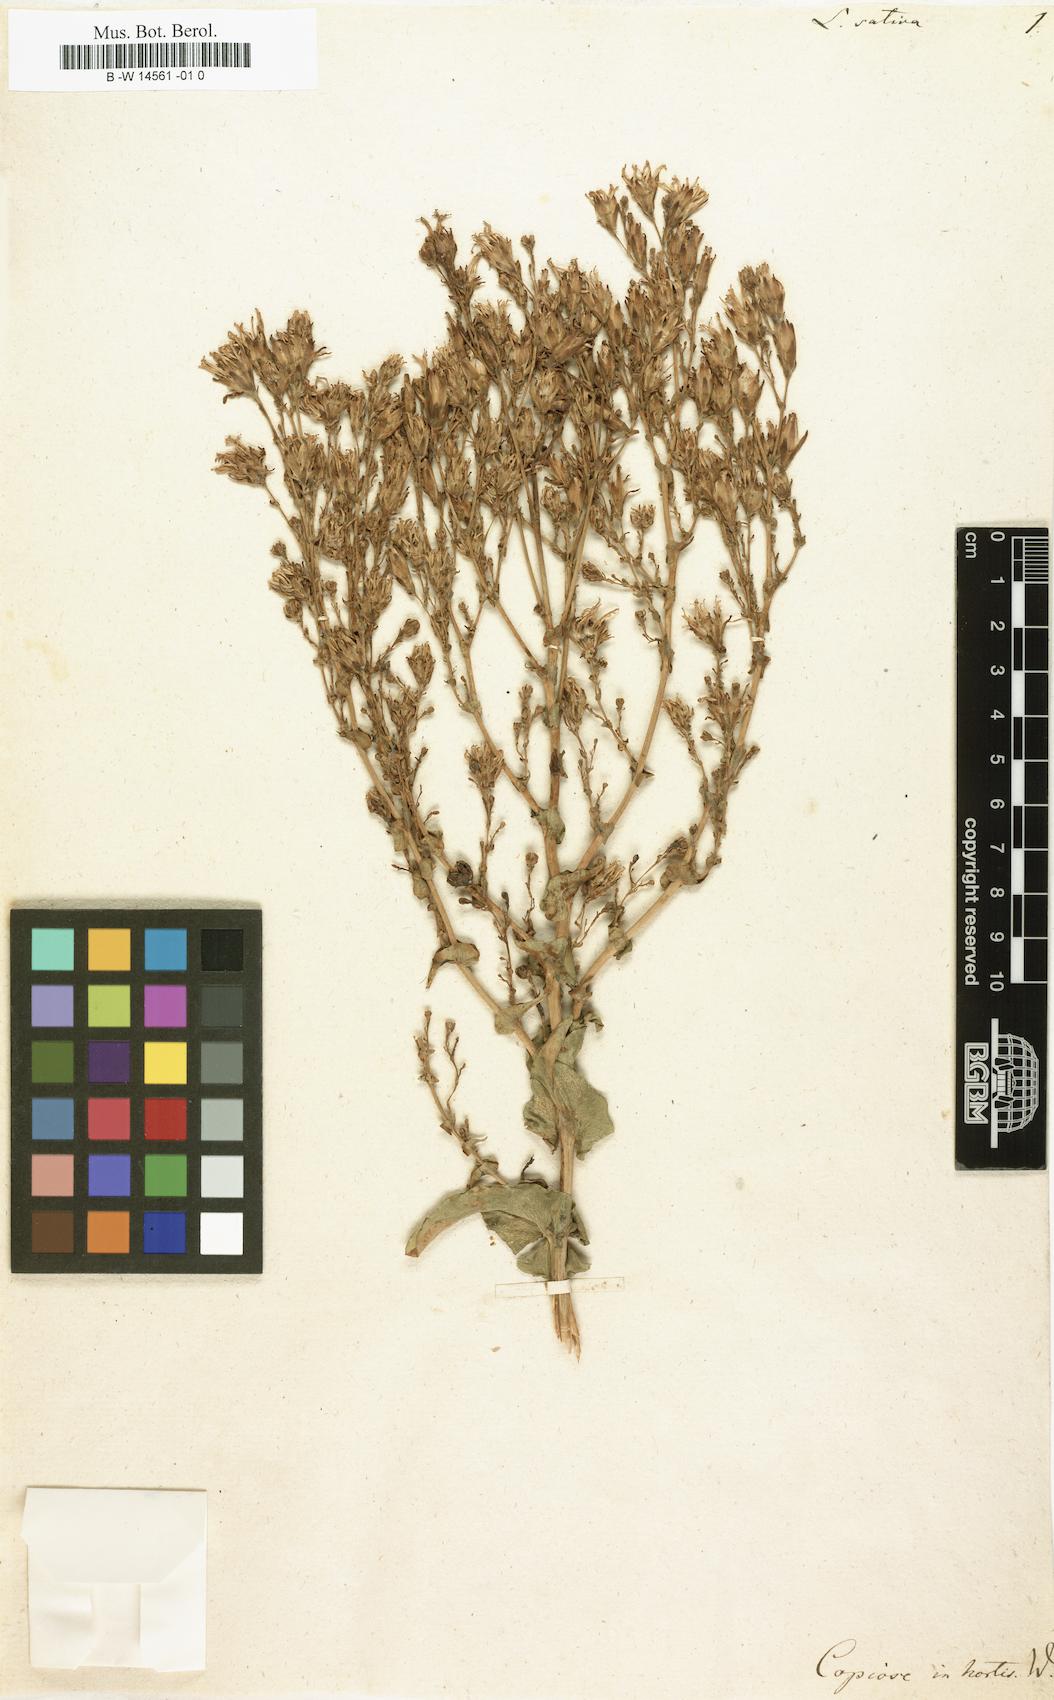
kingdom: Plantae
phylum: Tracheophyta
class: Magnoliopsida
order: Asterales
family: Asteraceae
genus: Lactuca
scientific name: Lactuca sativa
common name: Garden lettuce
